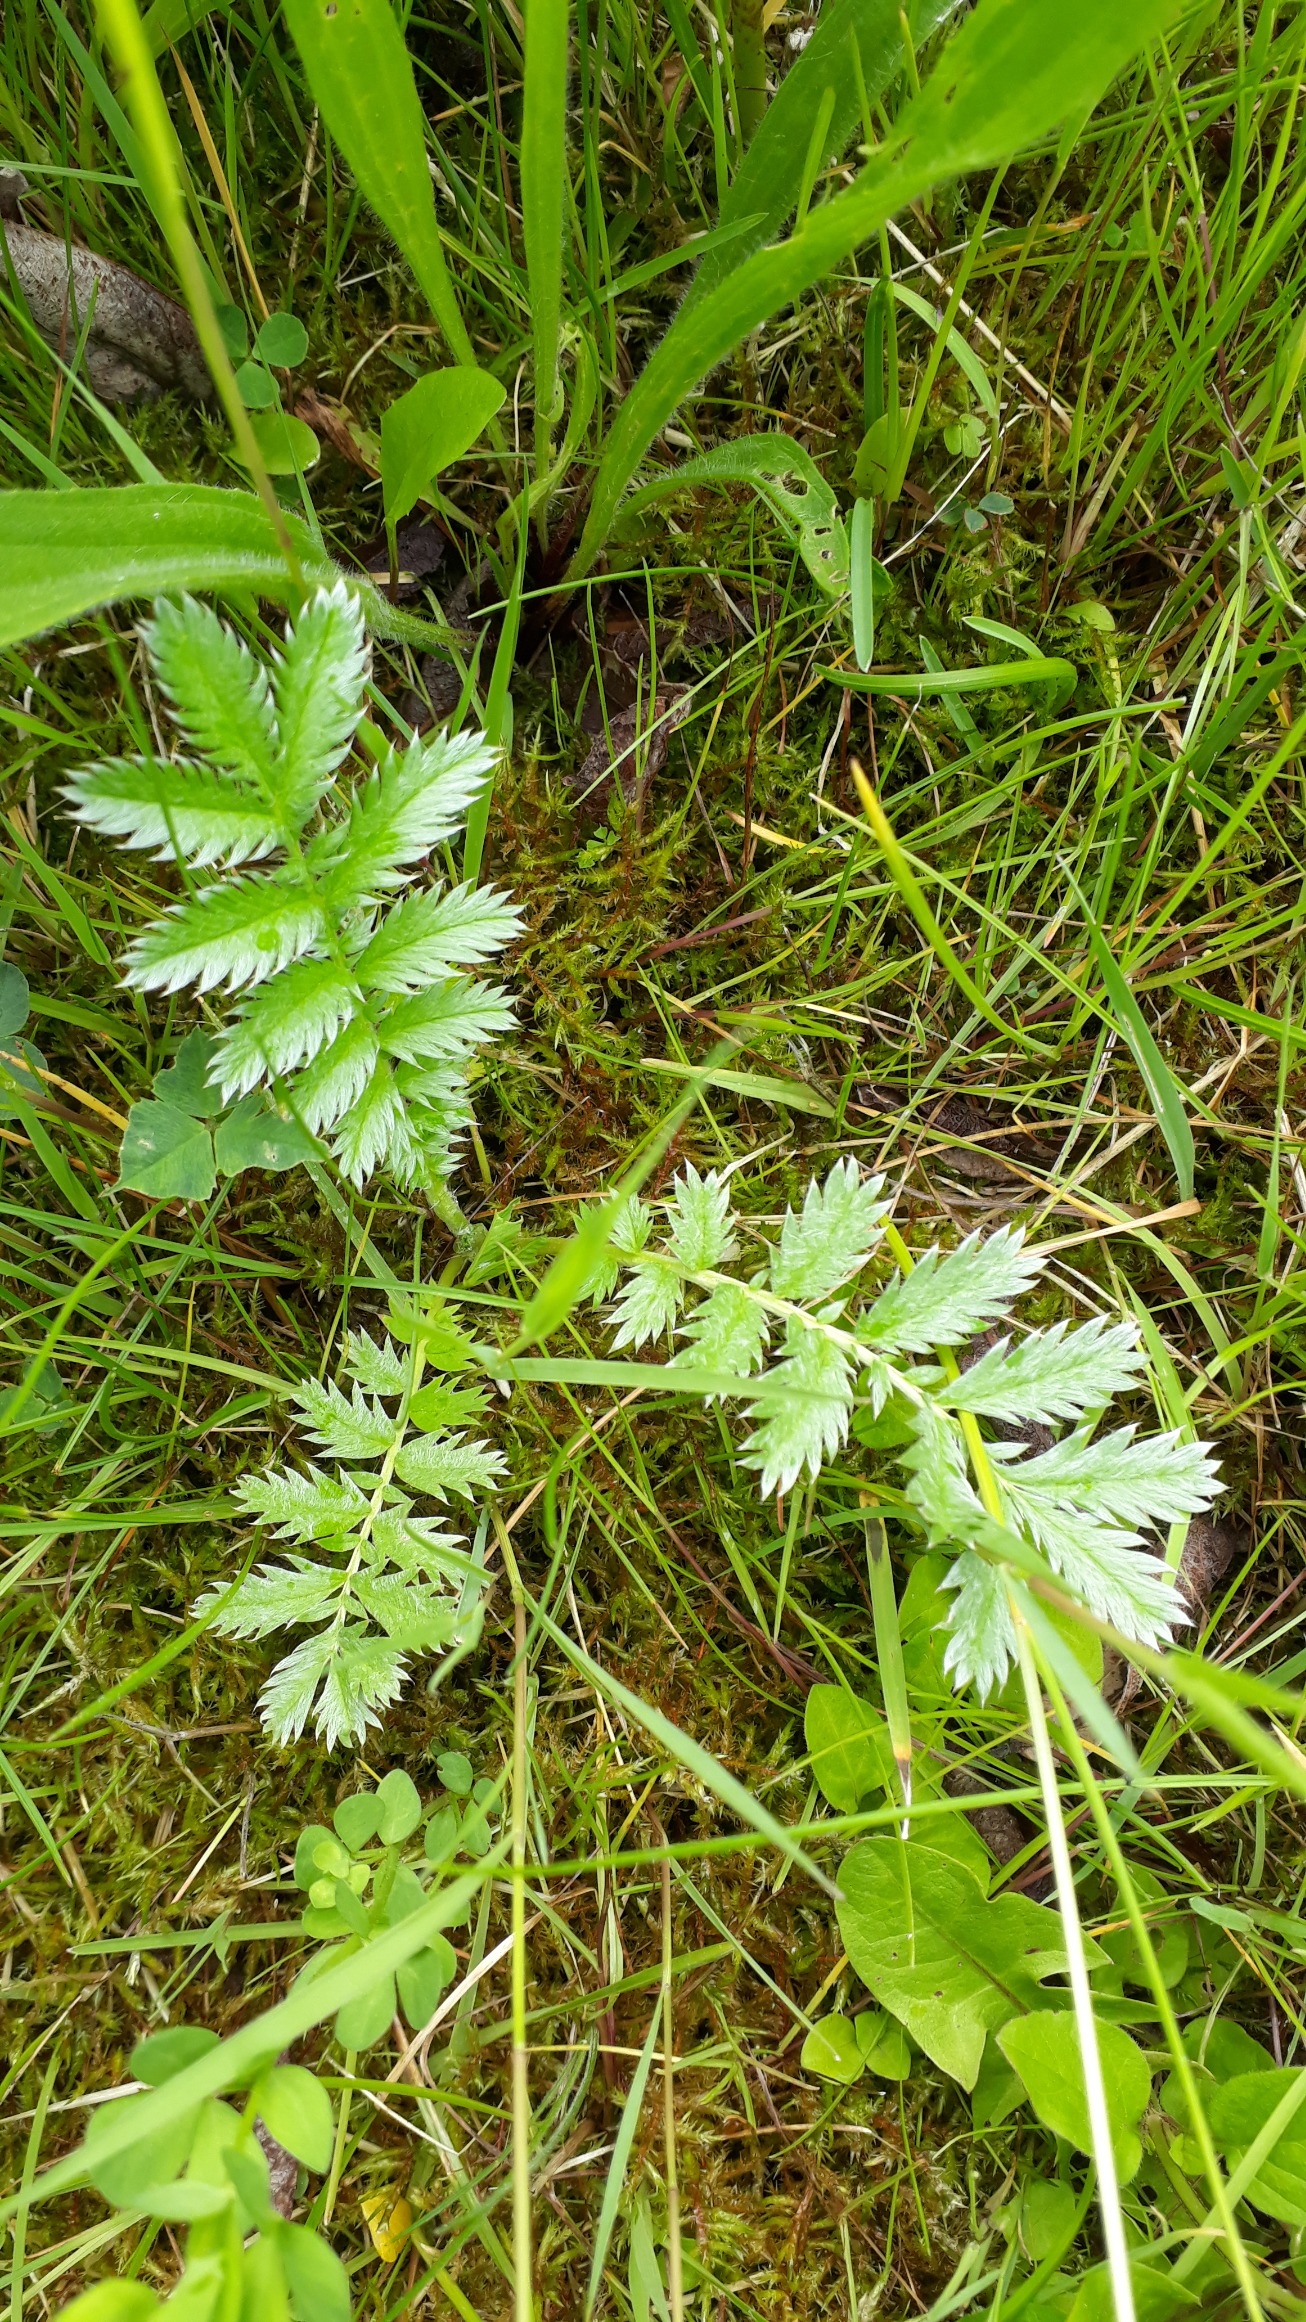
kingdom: Plantae
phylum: Tracheophyta
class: Magnoliopsida
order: Rosales
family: Rosaceae
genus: Argentina
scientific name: Argentina anserina
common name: Gåsepotentil
